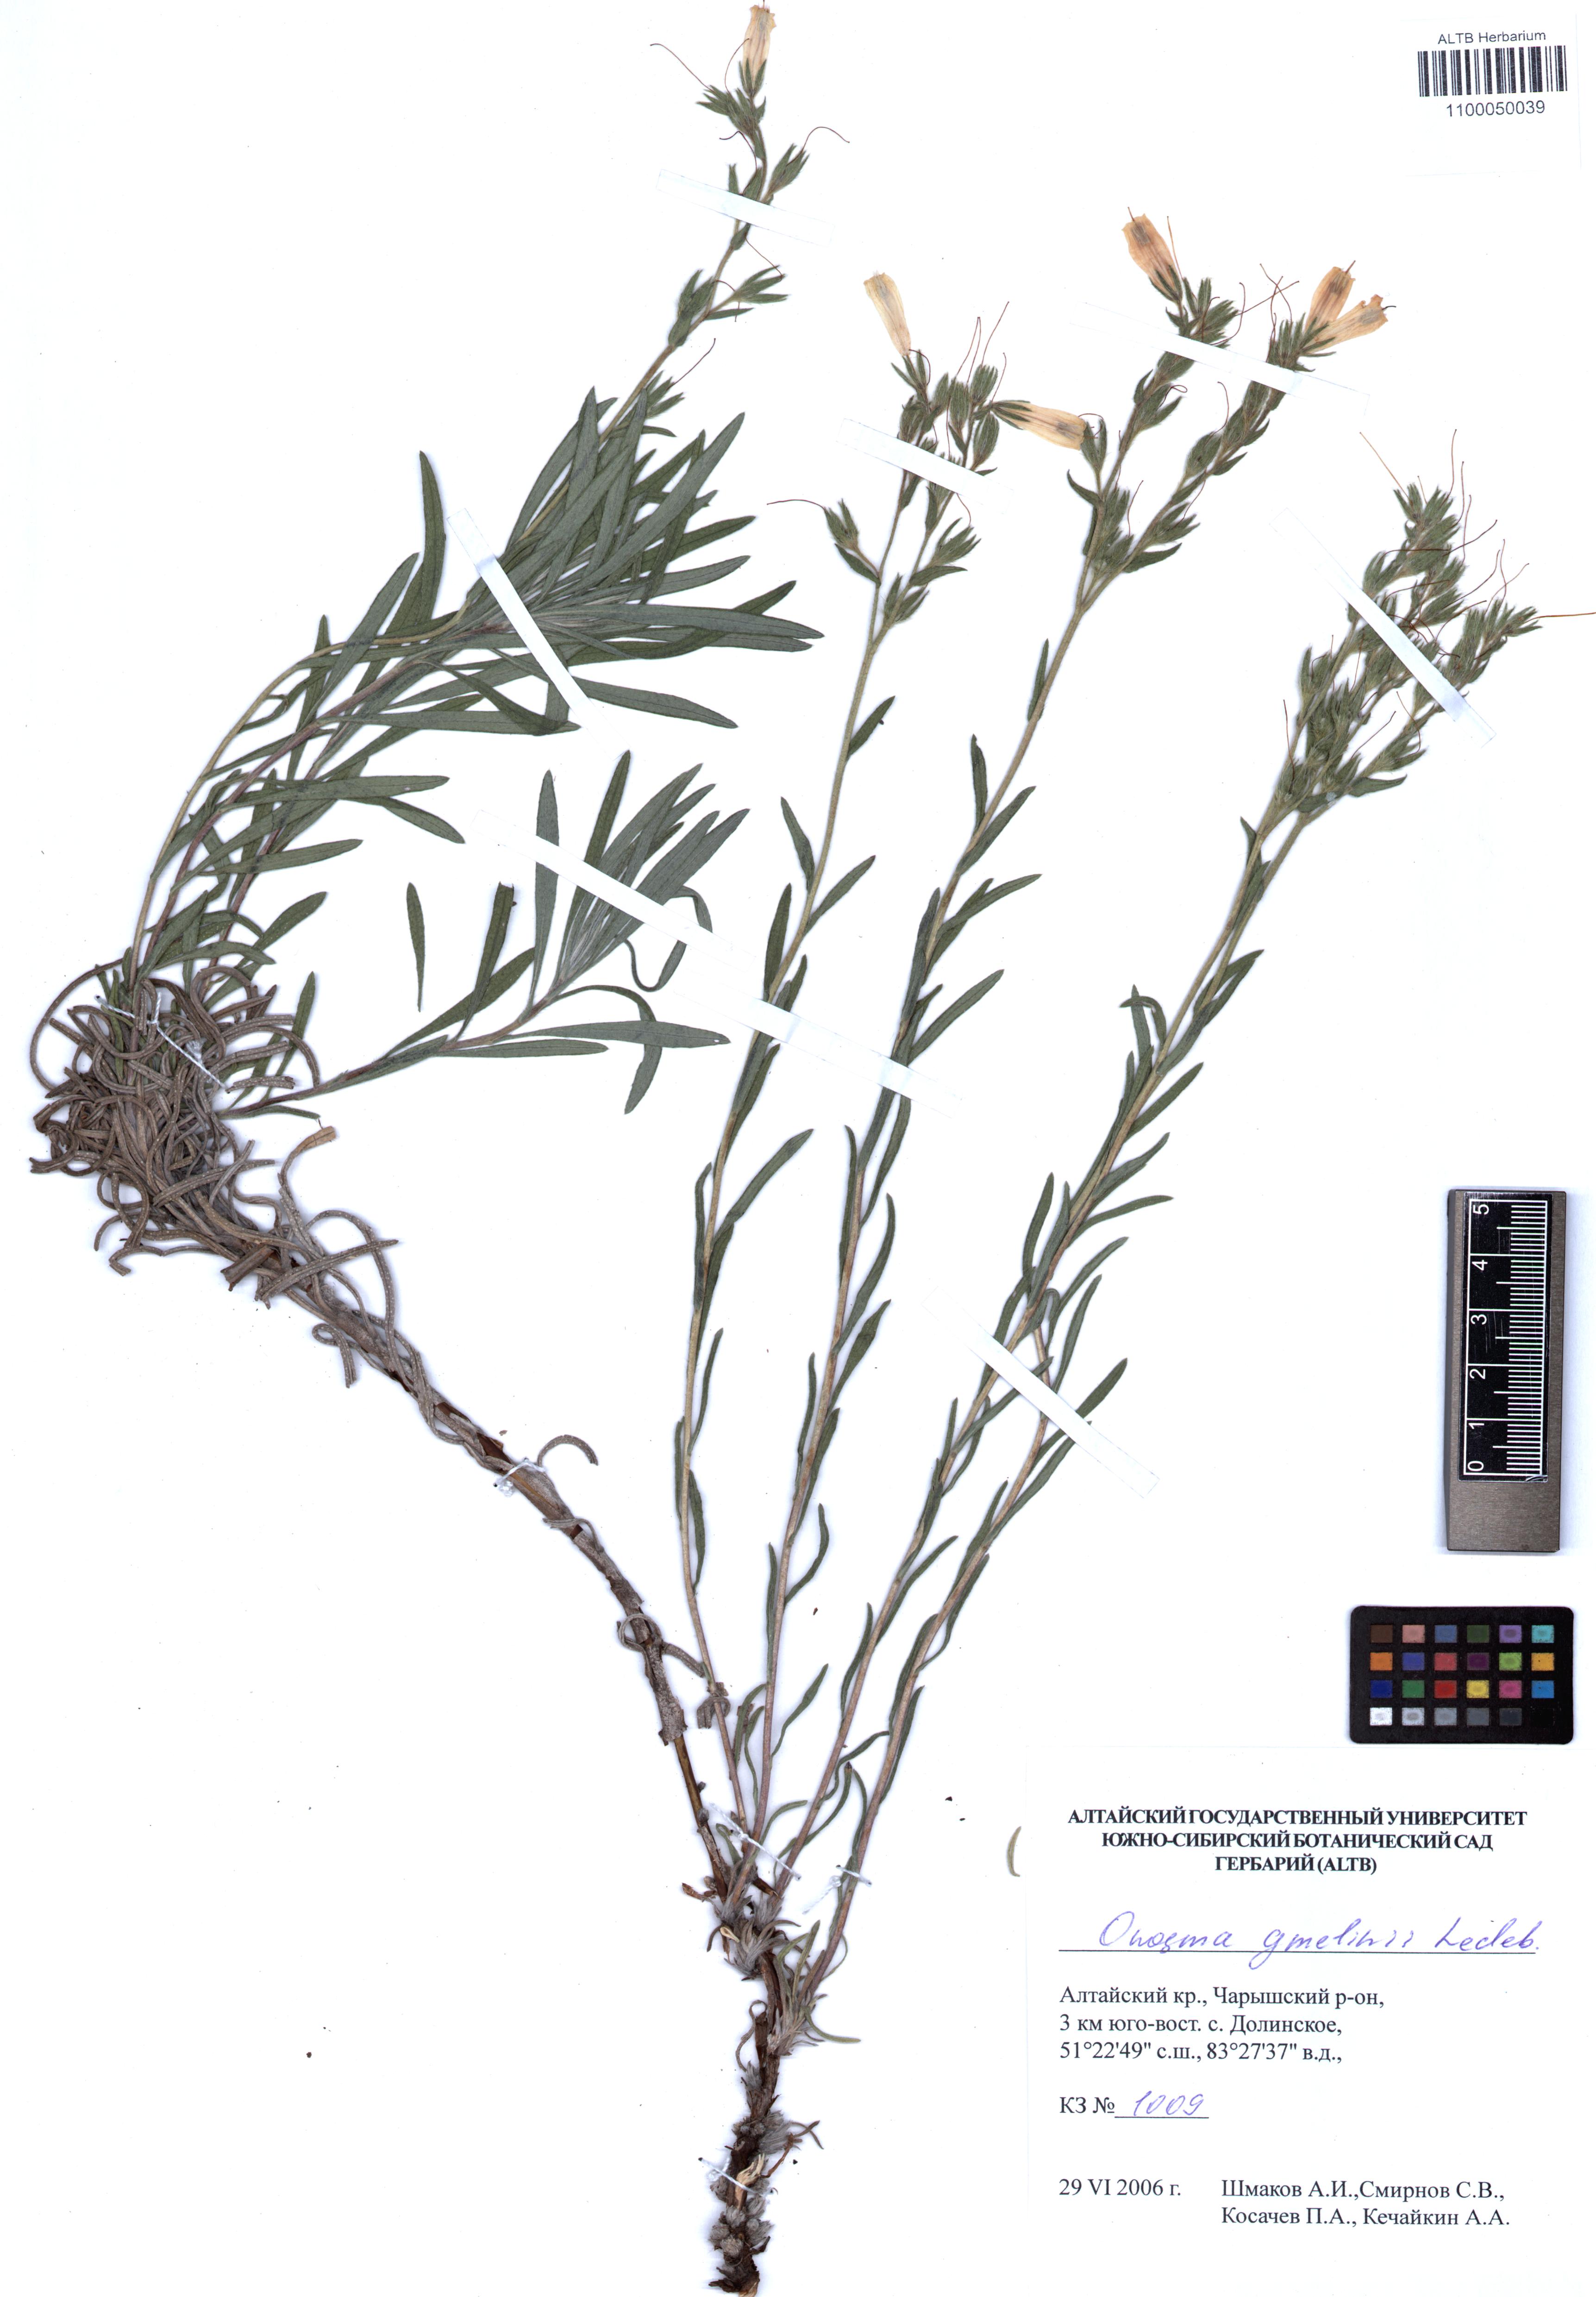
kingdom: Plantae
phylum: Tracheophyta
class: Magnoliopsida
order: Boraginales
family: Boraginaceae
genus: Onosma
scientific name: Onosma gmelinii
